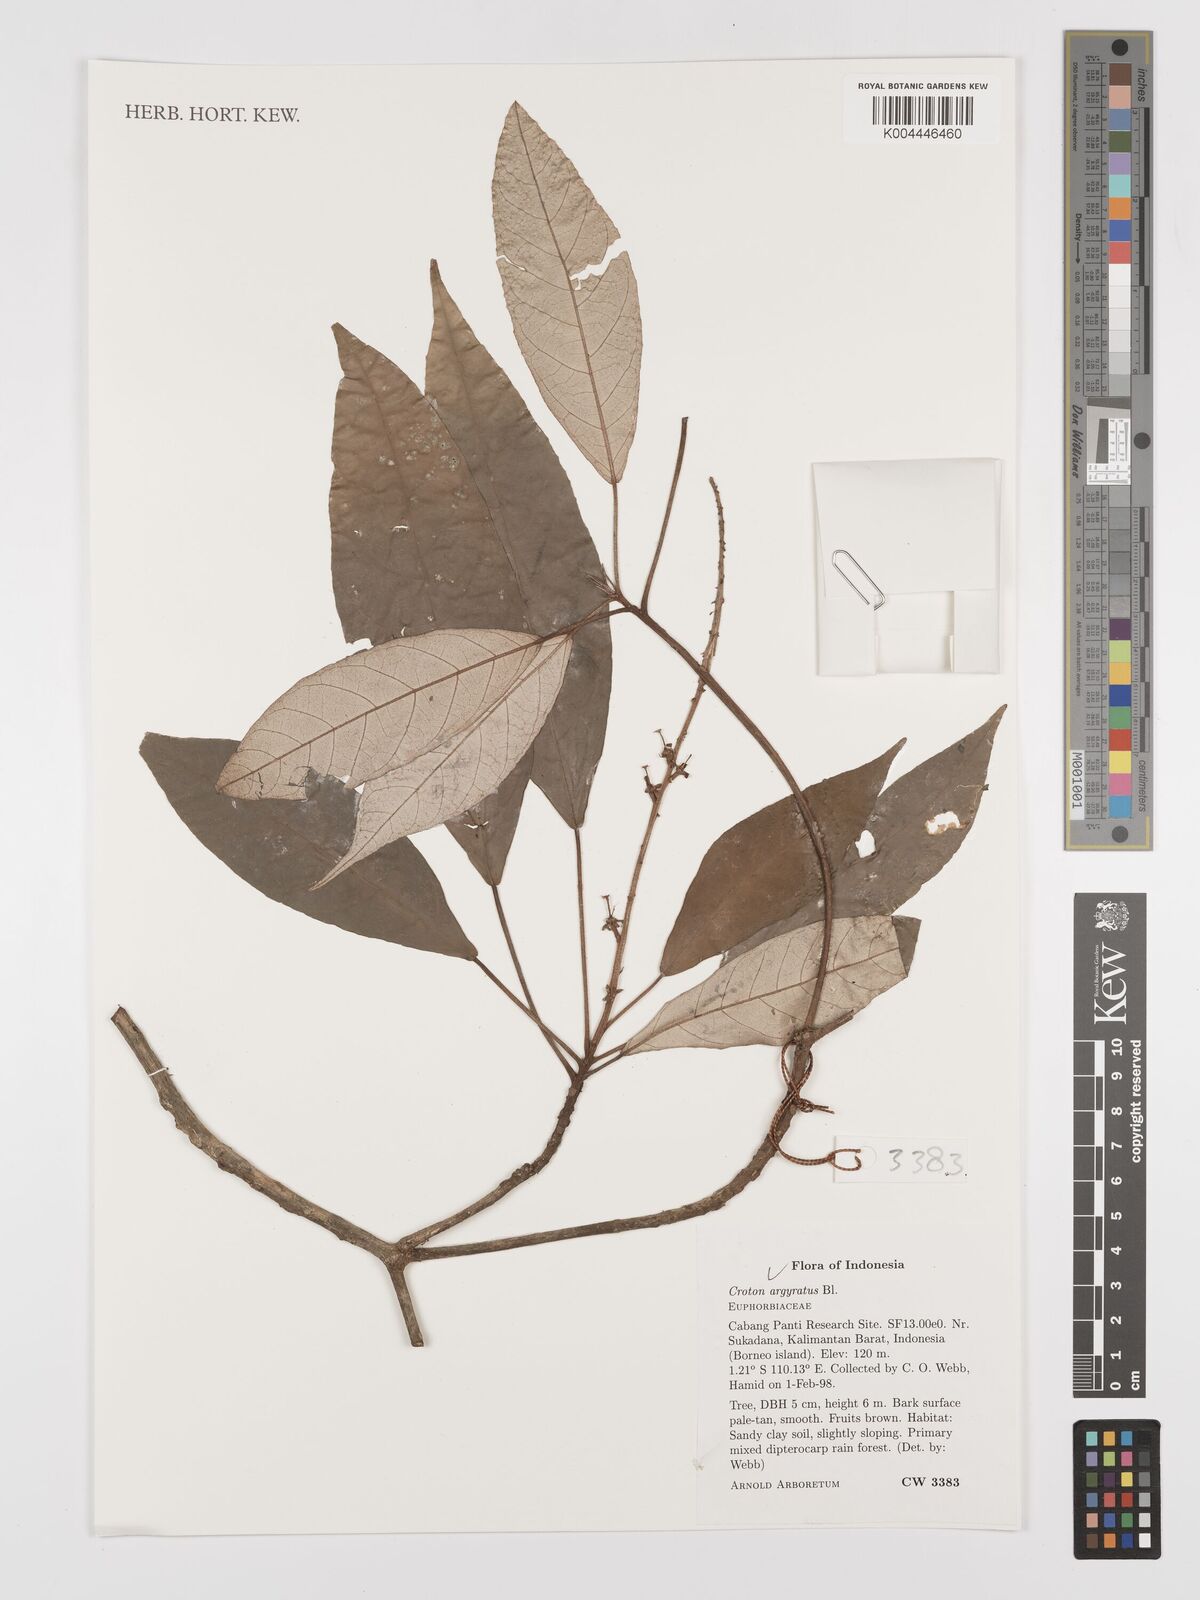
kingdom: Plantae
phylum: Tracheophyta
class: Magnoliopsida
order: Malpighiales
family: Euphorbiaceae
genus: Croton
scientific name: Croton argyratus
